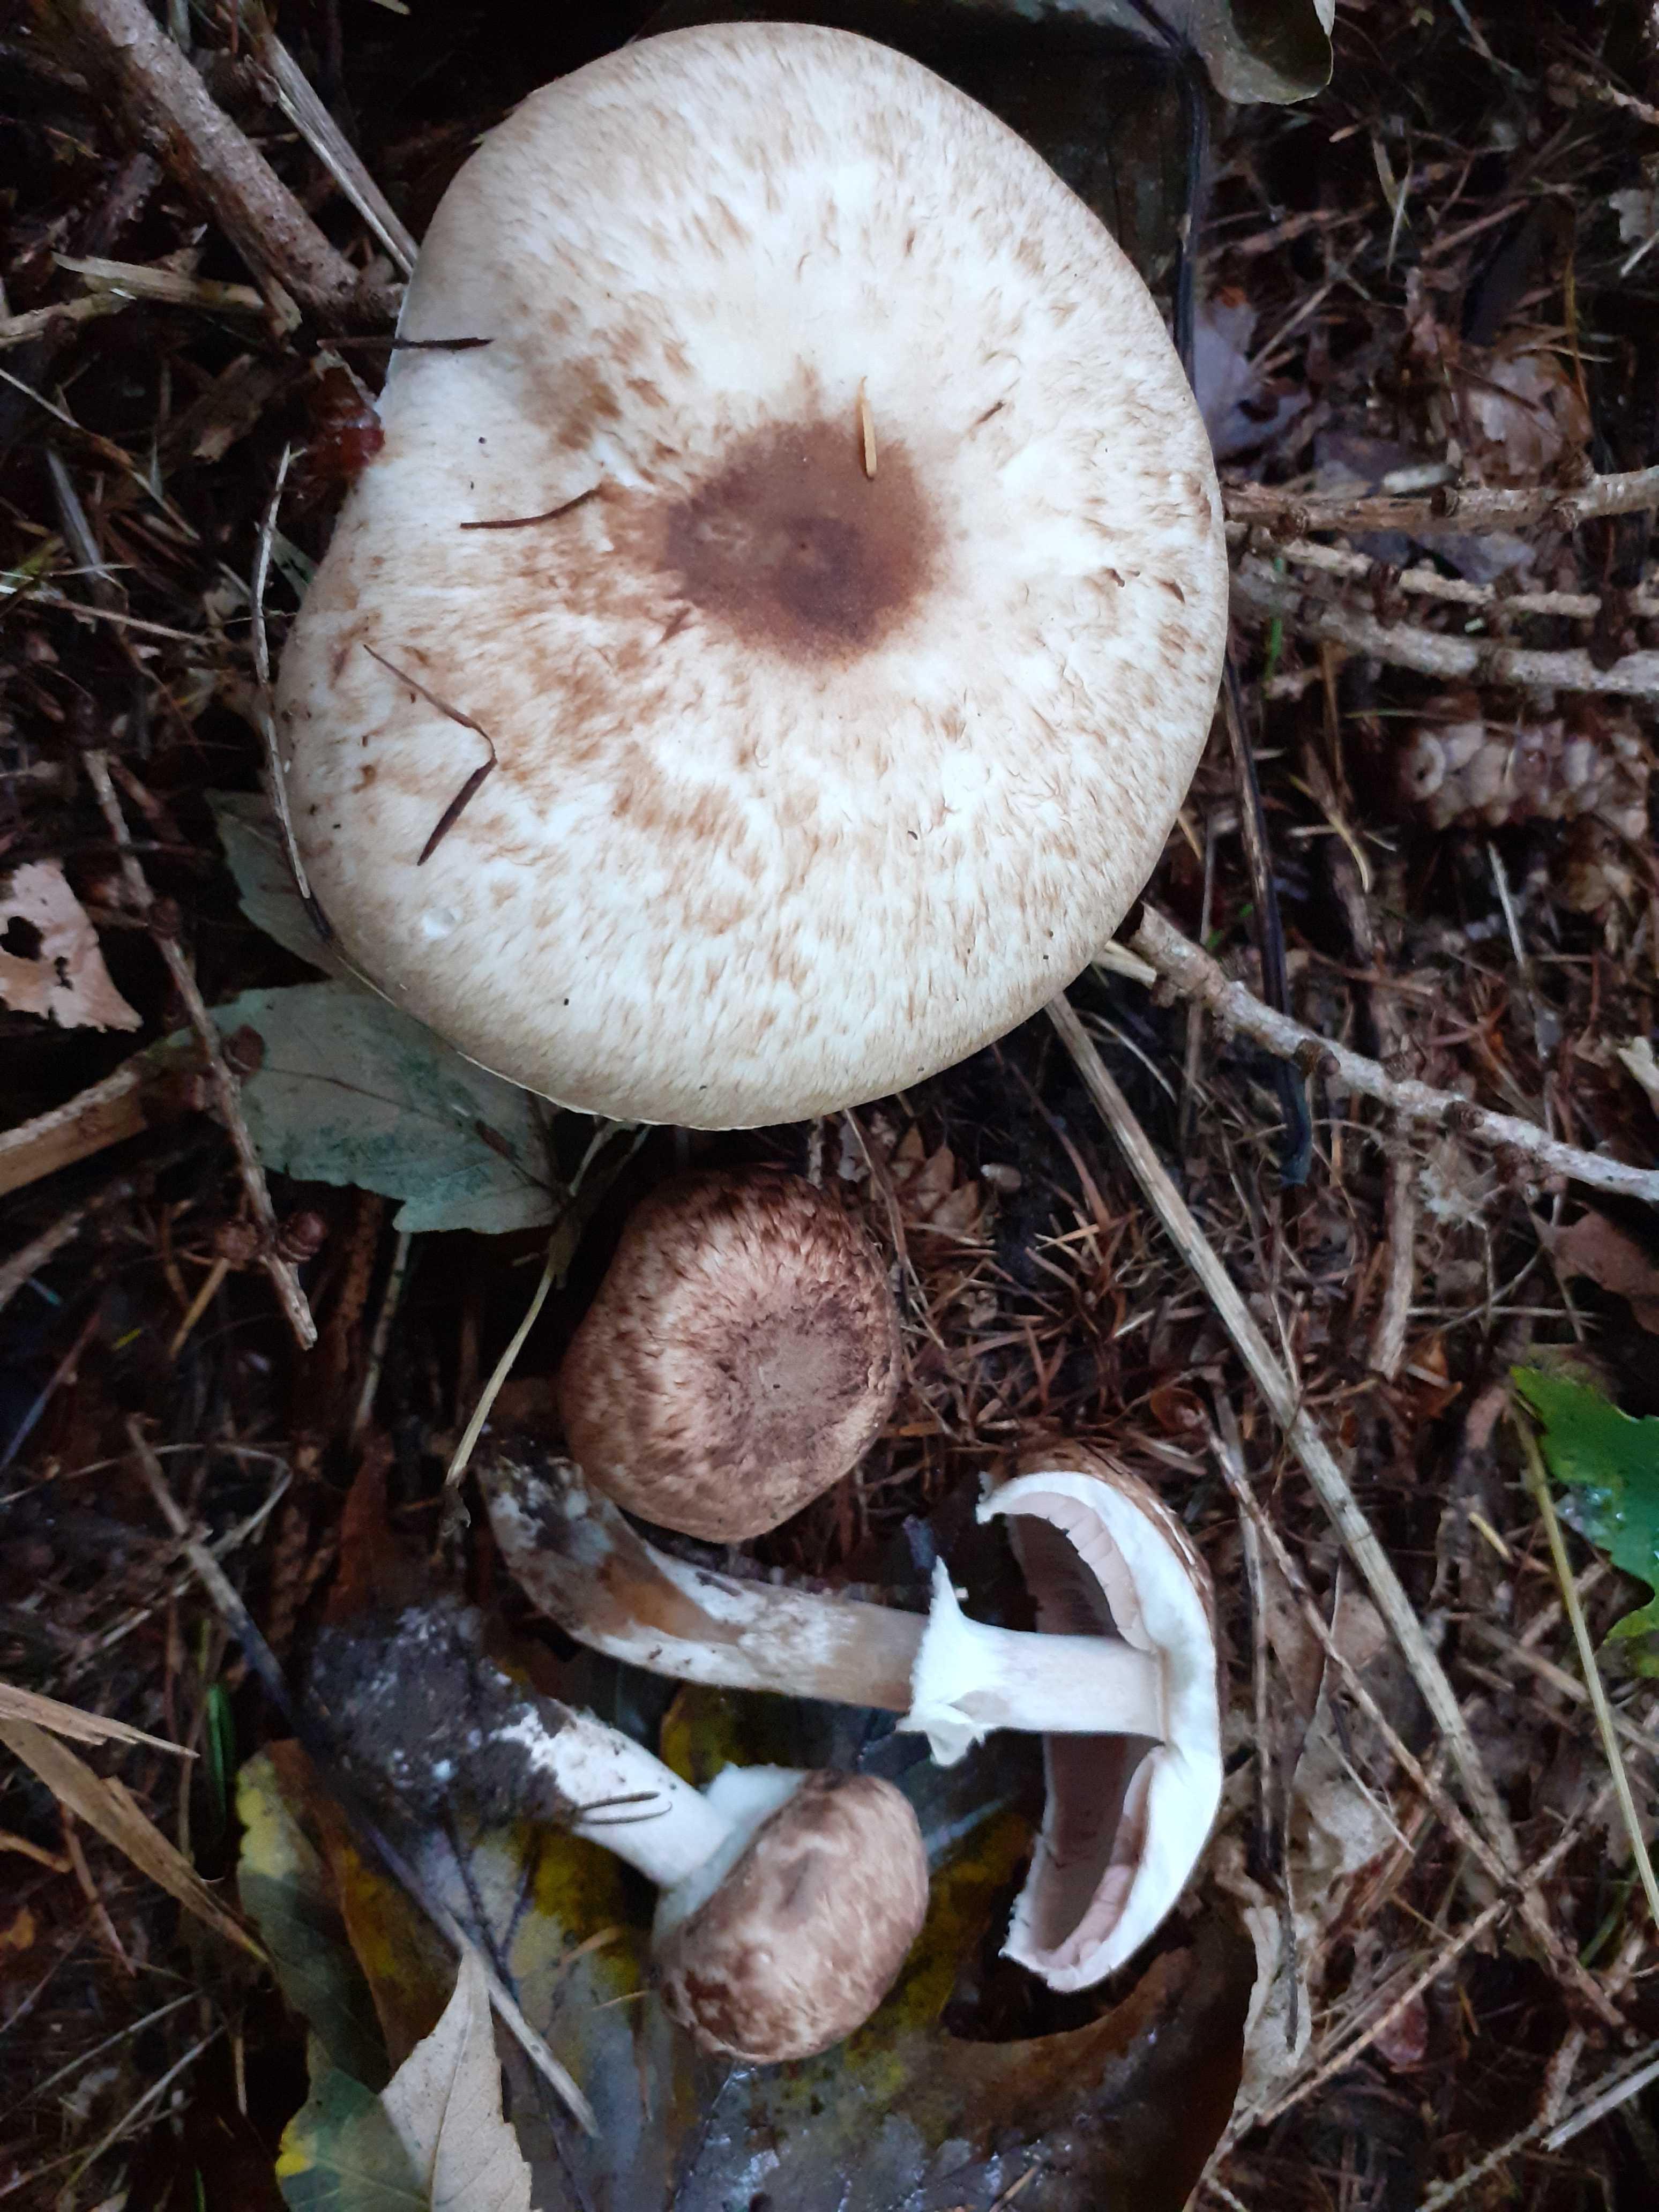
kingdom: Fungi
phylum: Basidiomycota
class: Agaricomycetes
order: Agaricales
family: Agaricaceae
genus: Agaricus
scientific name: Agaricus impudicus
